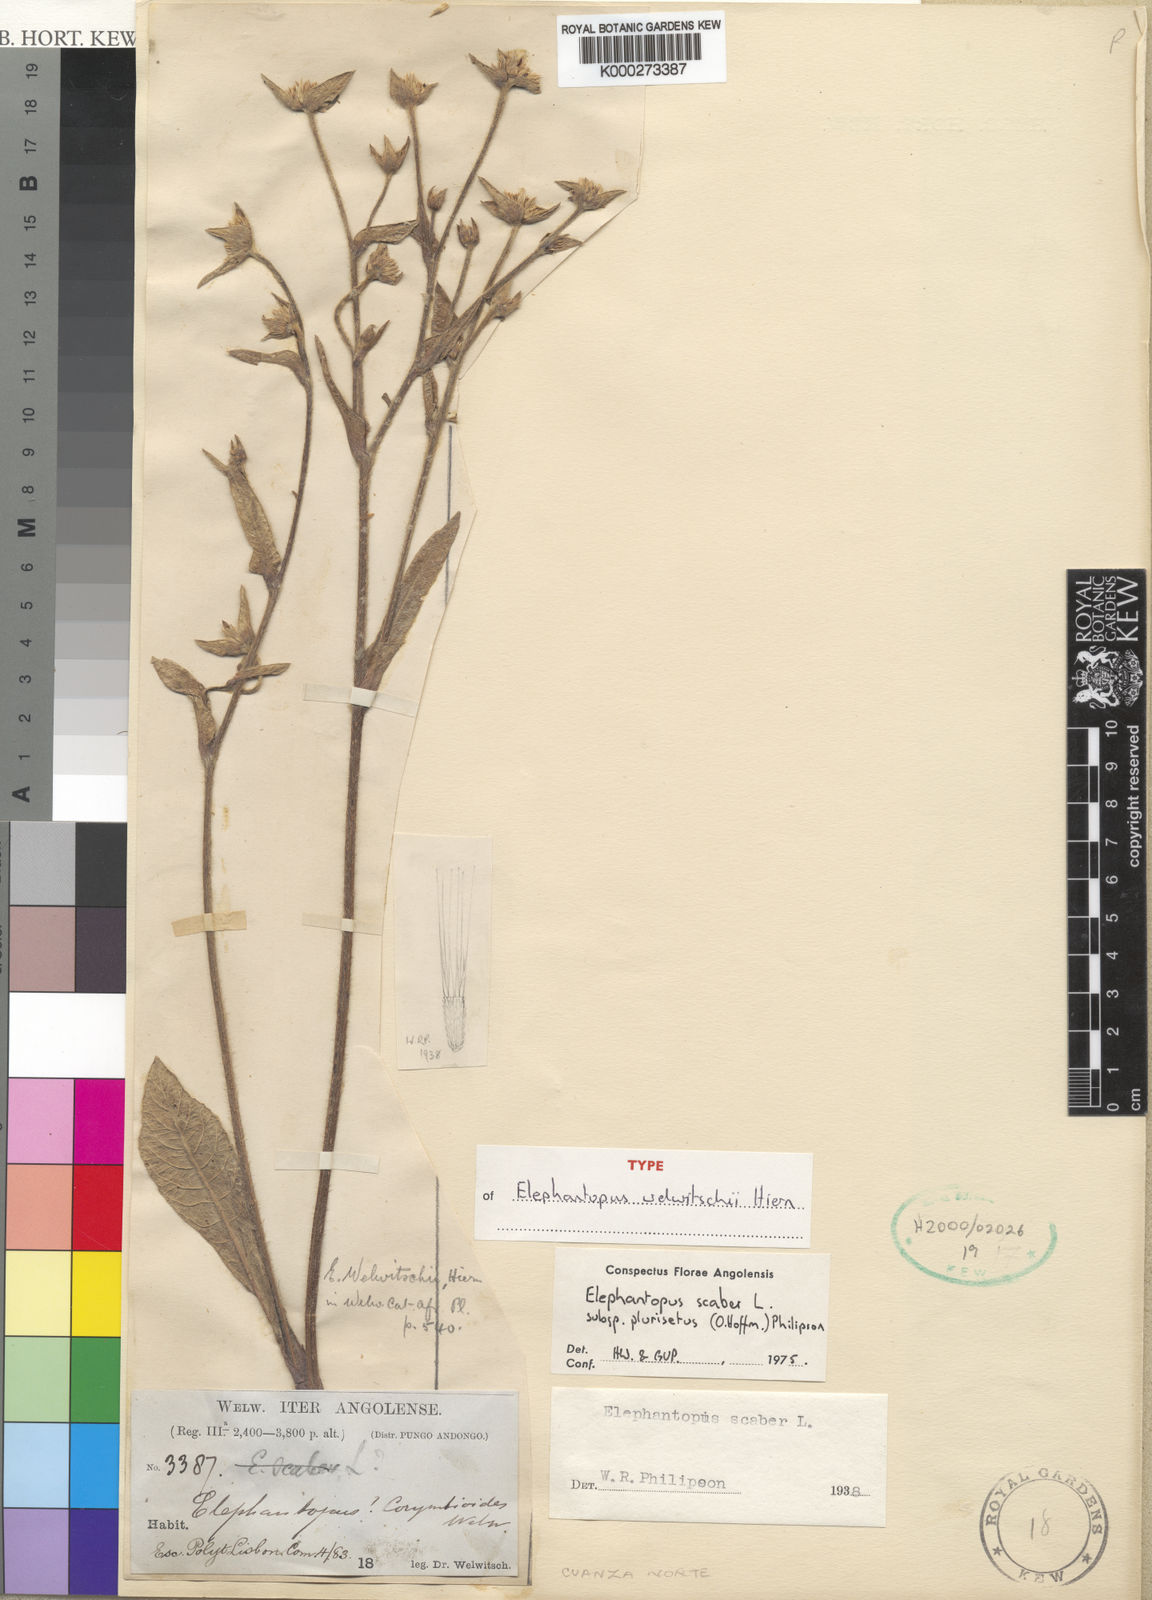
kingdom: Plantae
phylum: Tracheophyta
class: Magnoliopsida
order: Asterales
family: Asteraceae
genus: Elephantopus
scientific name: Elephantopus scaber
